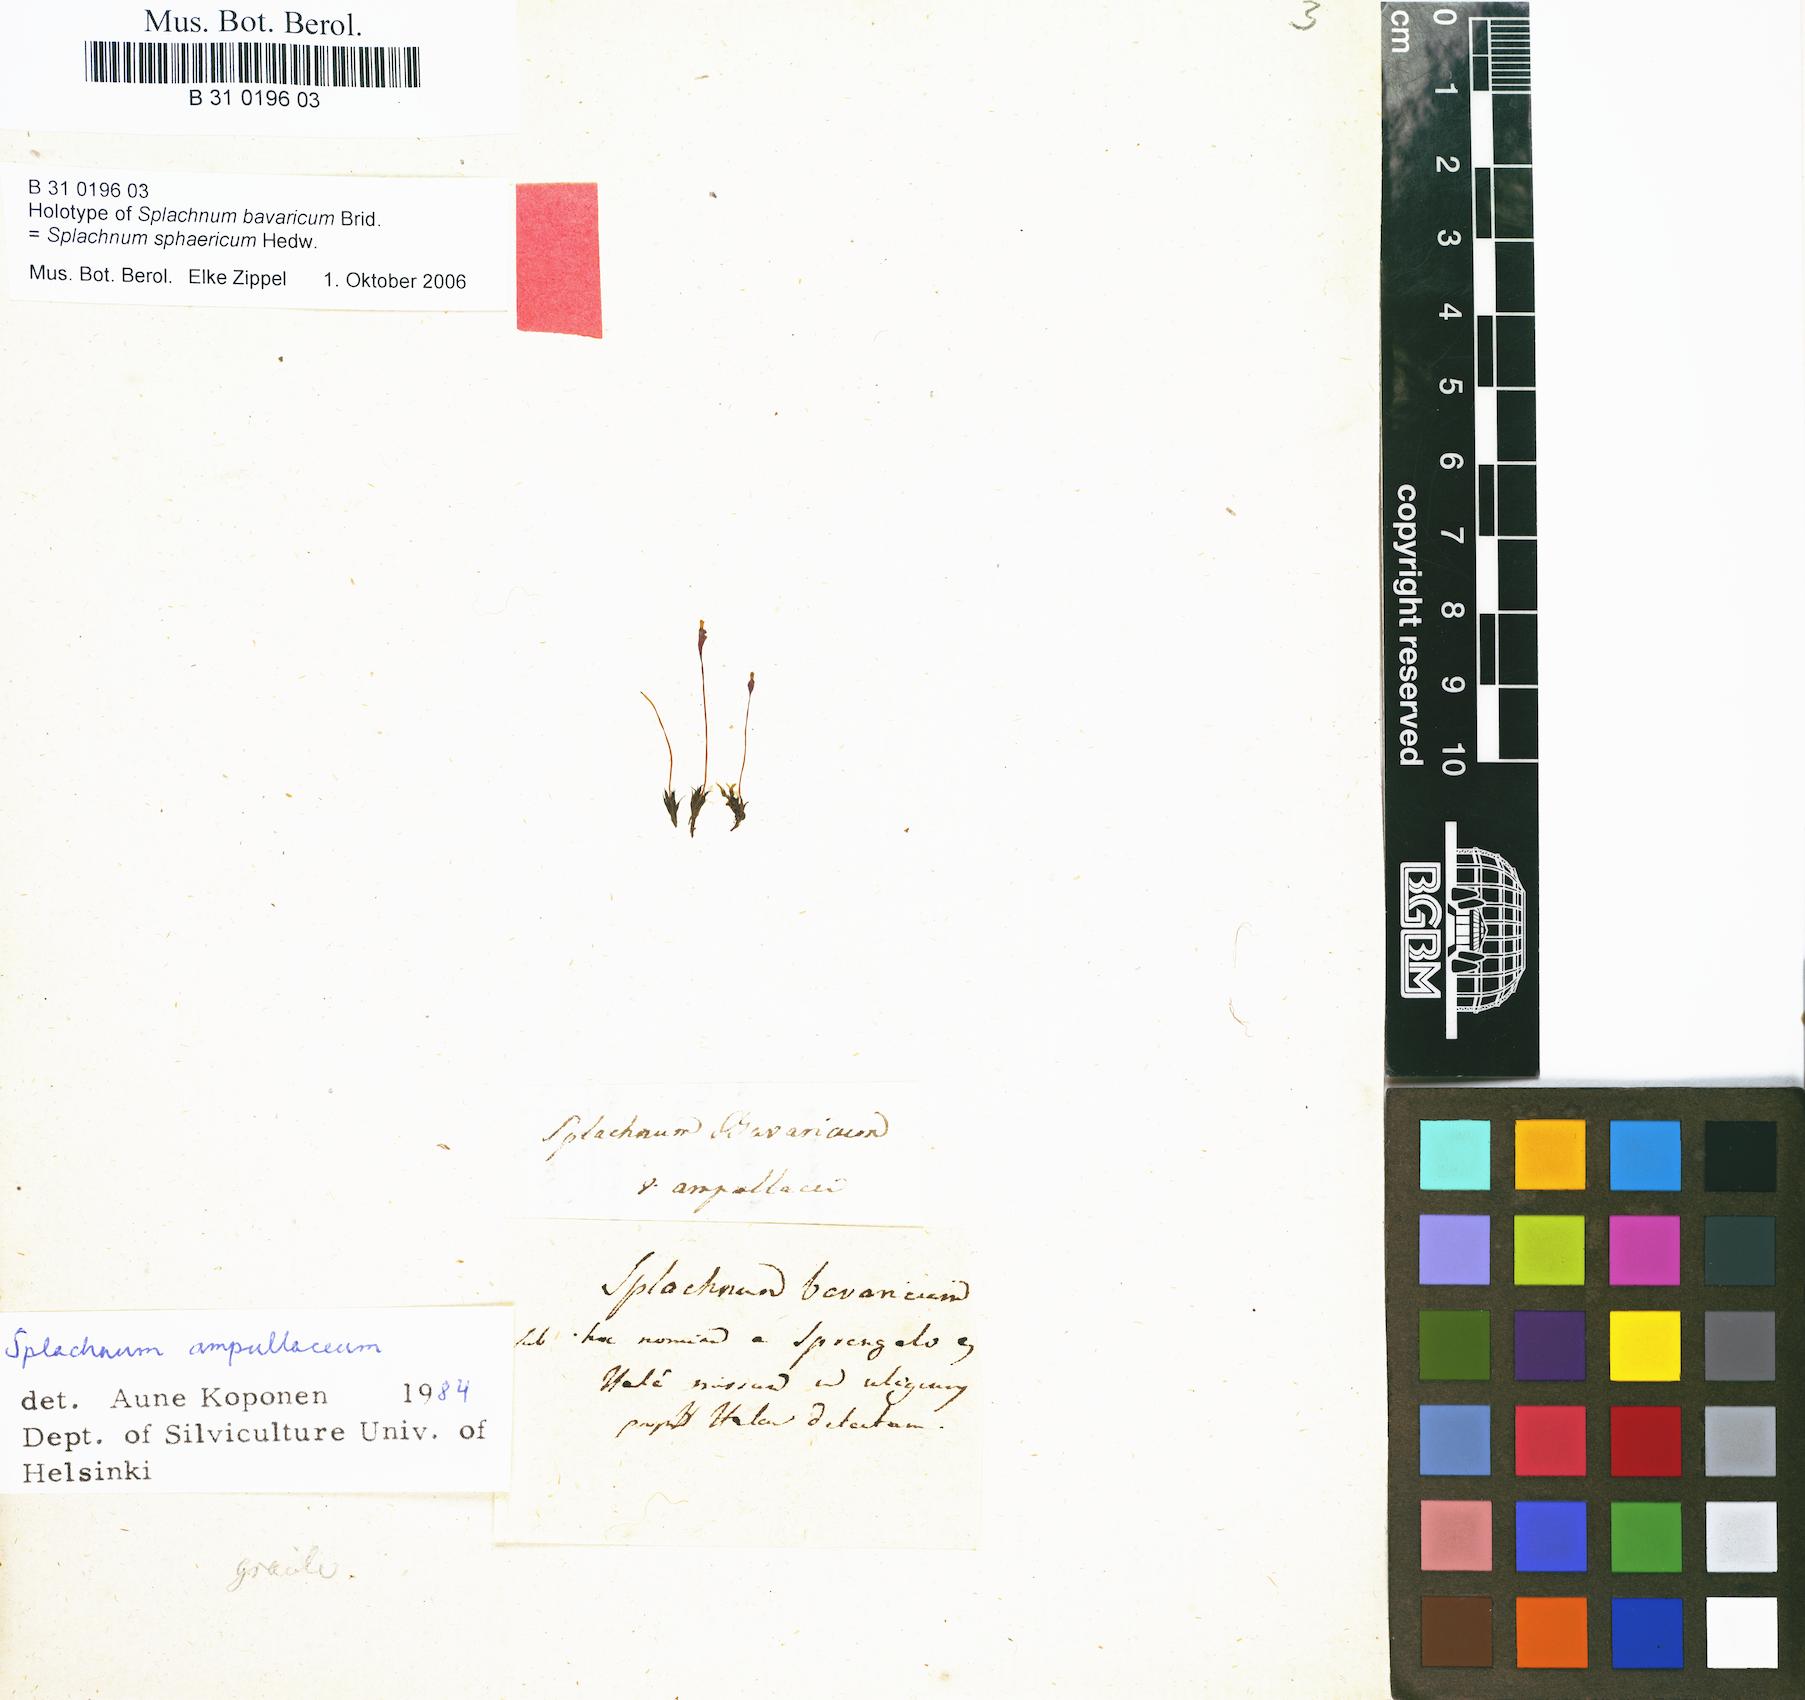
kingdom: Plantae
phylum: Bryophyta
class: Bryopsida
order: Splachnales
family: Splachnaceae
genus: Splachnum
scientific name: Splachnum sphaericum
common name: Round-fruited dung moss
